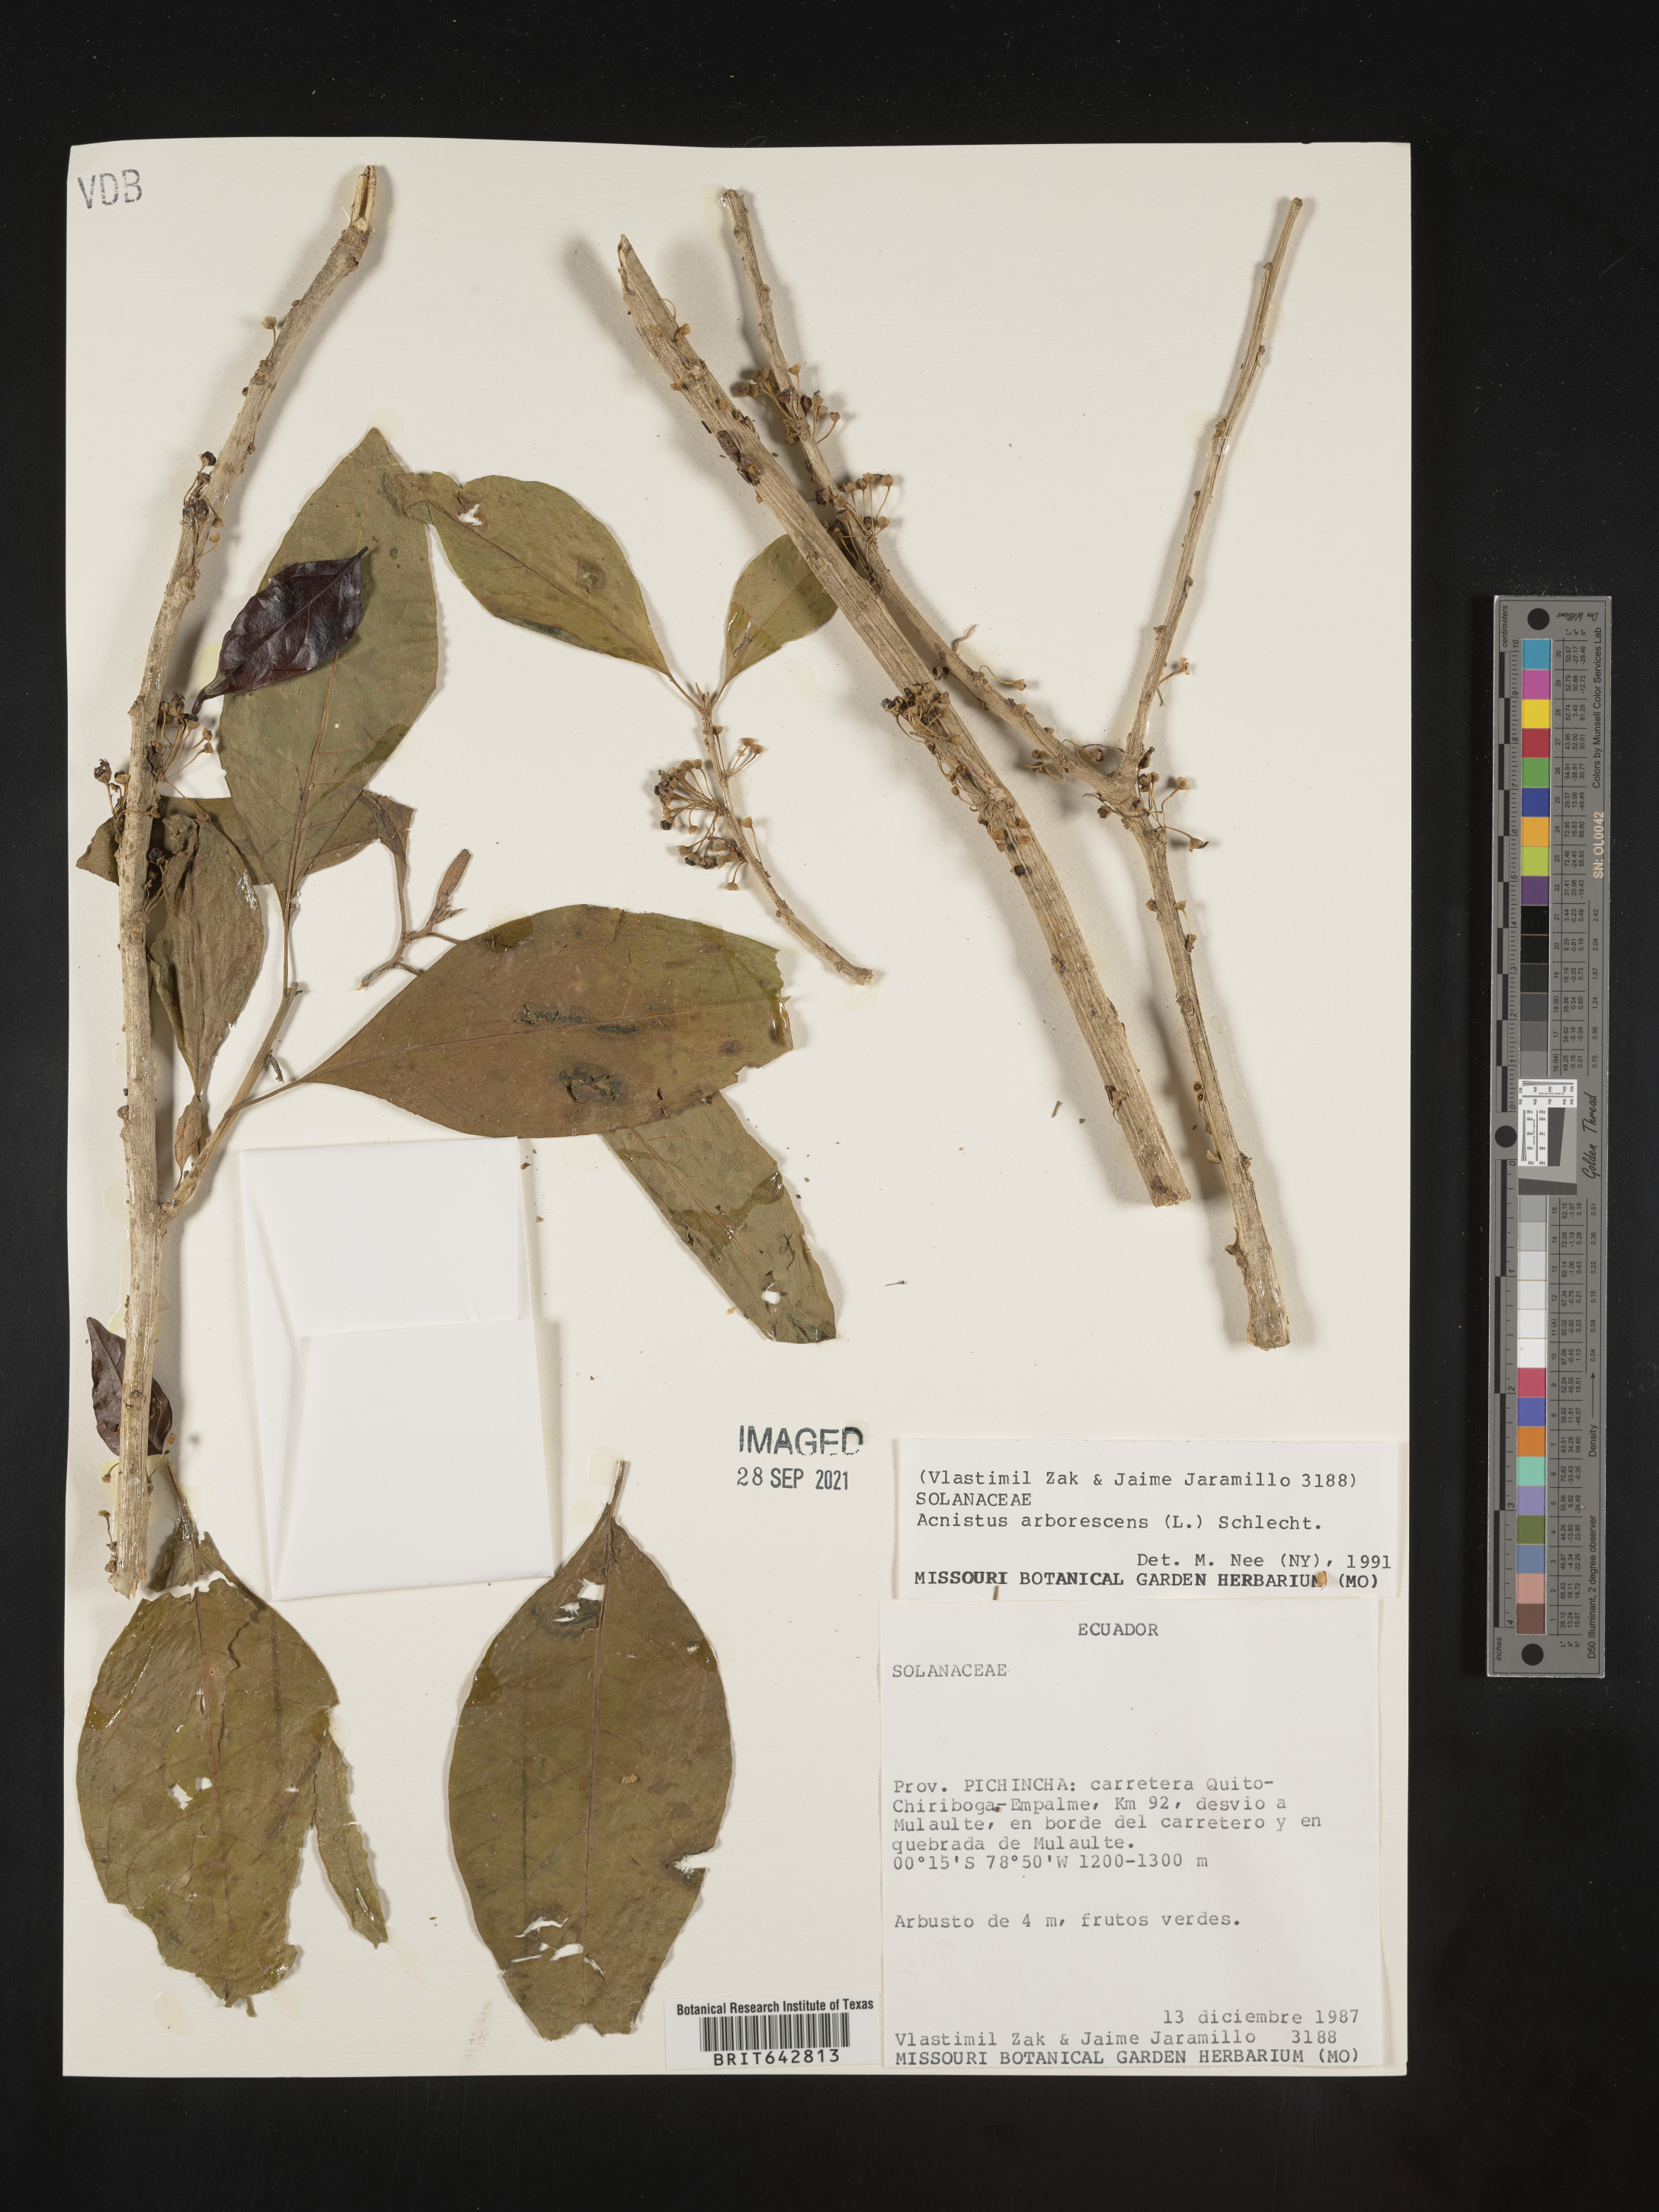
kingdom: Plantae
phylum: Tracheophyta
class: Magnoliopsida
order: Solanales
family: Solanaceae
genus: Iochroma
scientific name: Iochroma Acnistus spec
